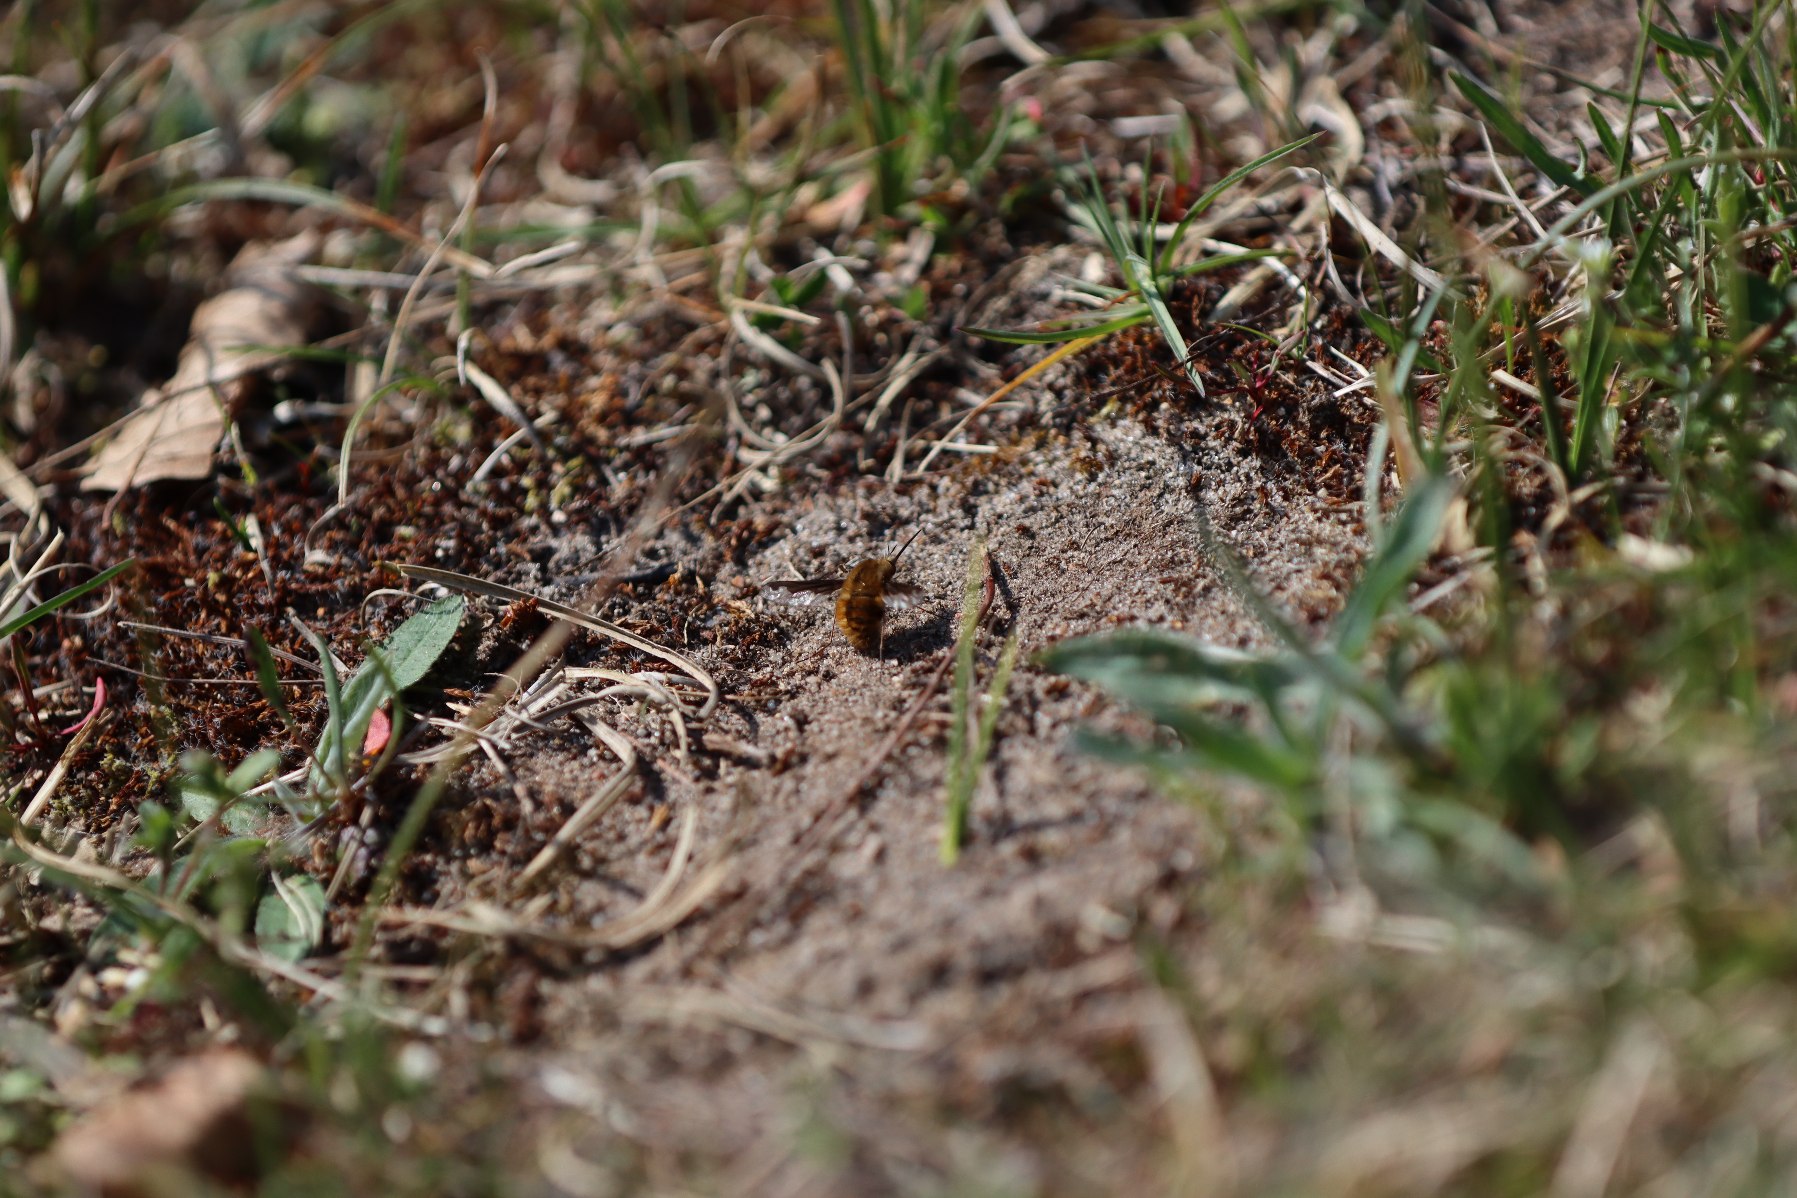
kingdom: Animalia
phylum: Arthropoda
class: Insecta
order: Diptera
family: Bombyliidae
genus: Bombylius
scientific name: Bombylius major
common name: Stor humleflue
